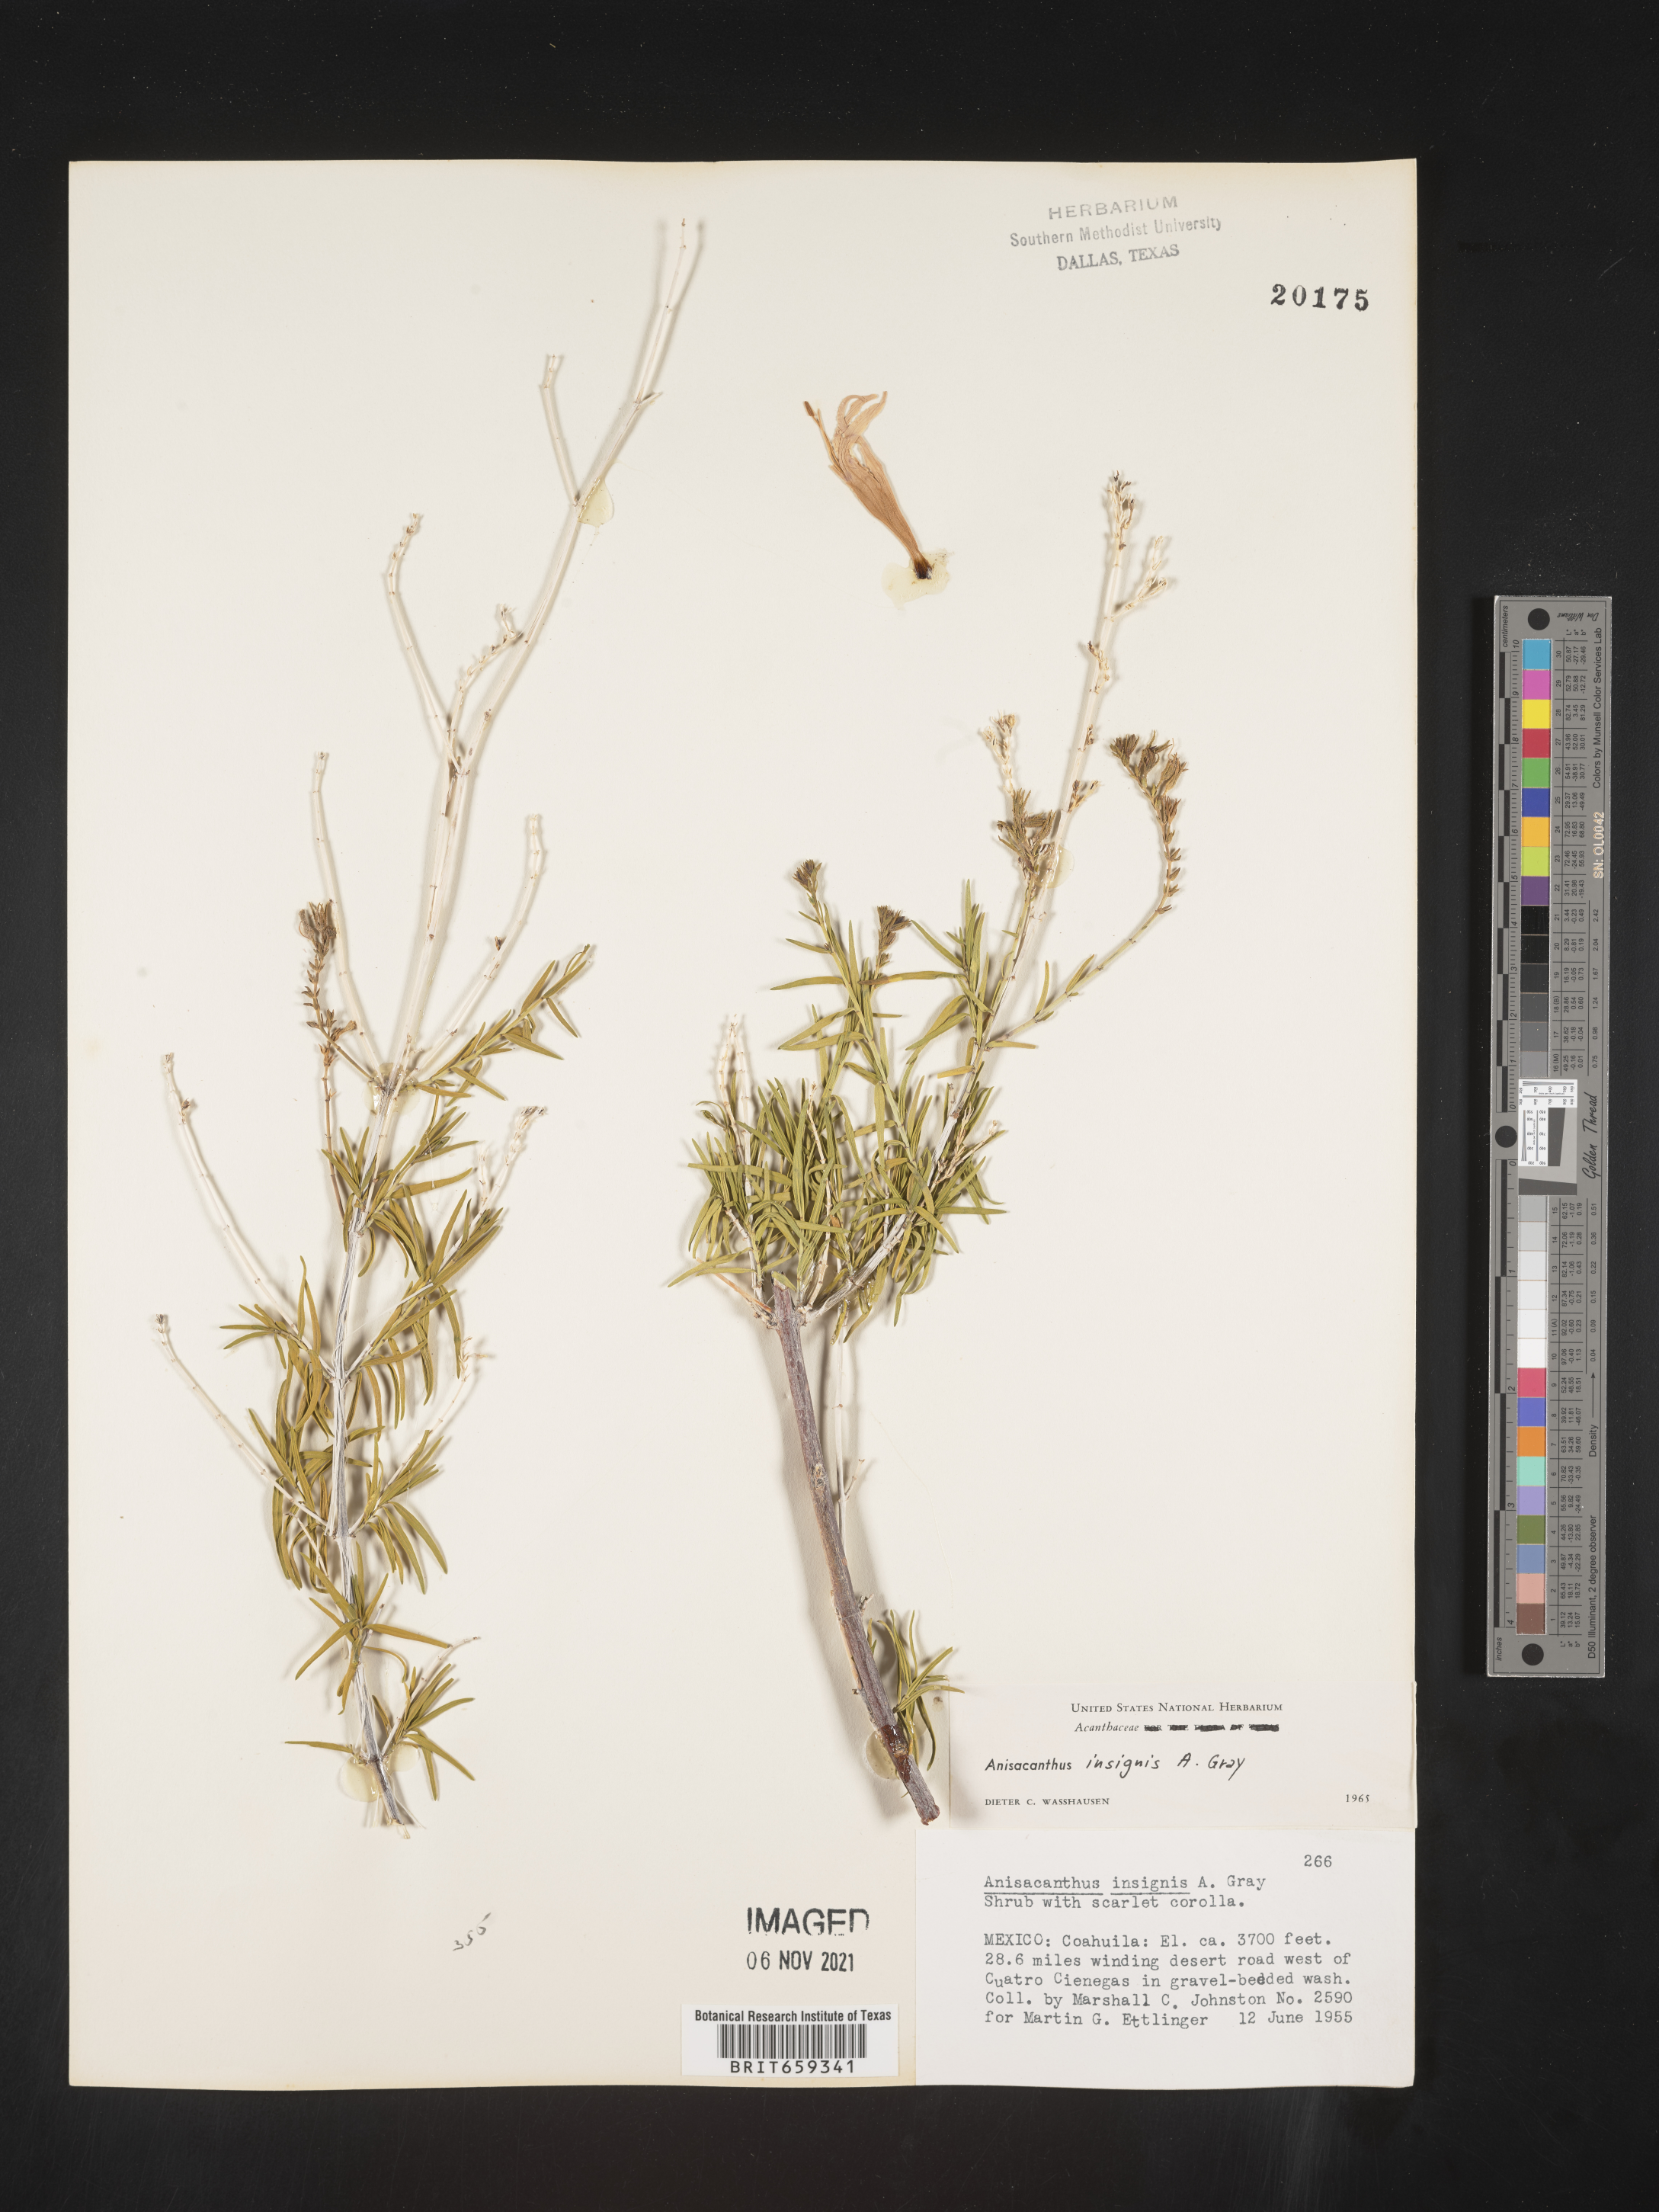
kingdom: Plantae
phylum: Tracheophyta
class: Magnoliopsida
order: Lamiales
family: Acanthaceae
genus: Anisacanthus
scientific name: Anisacanthus
